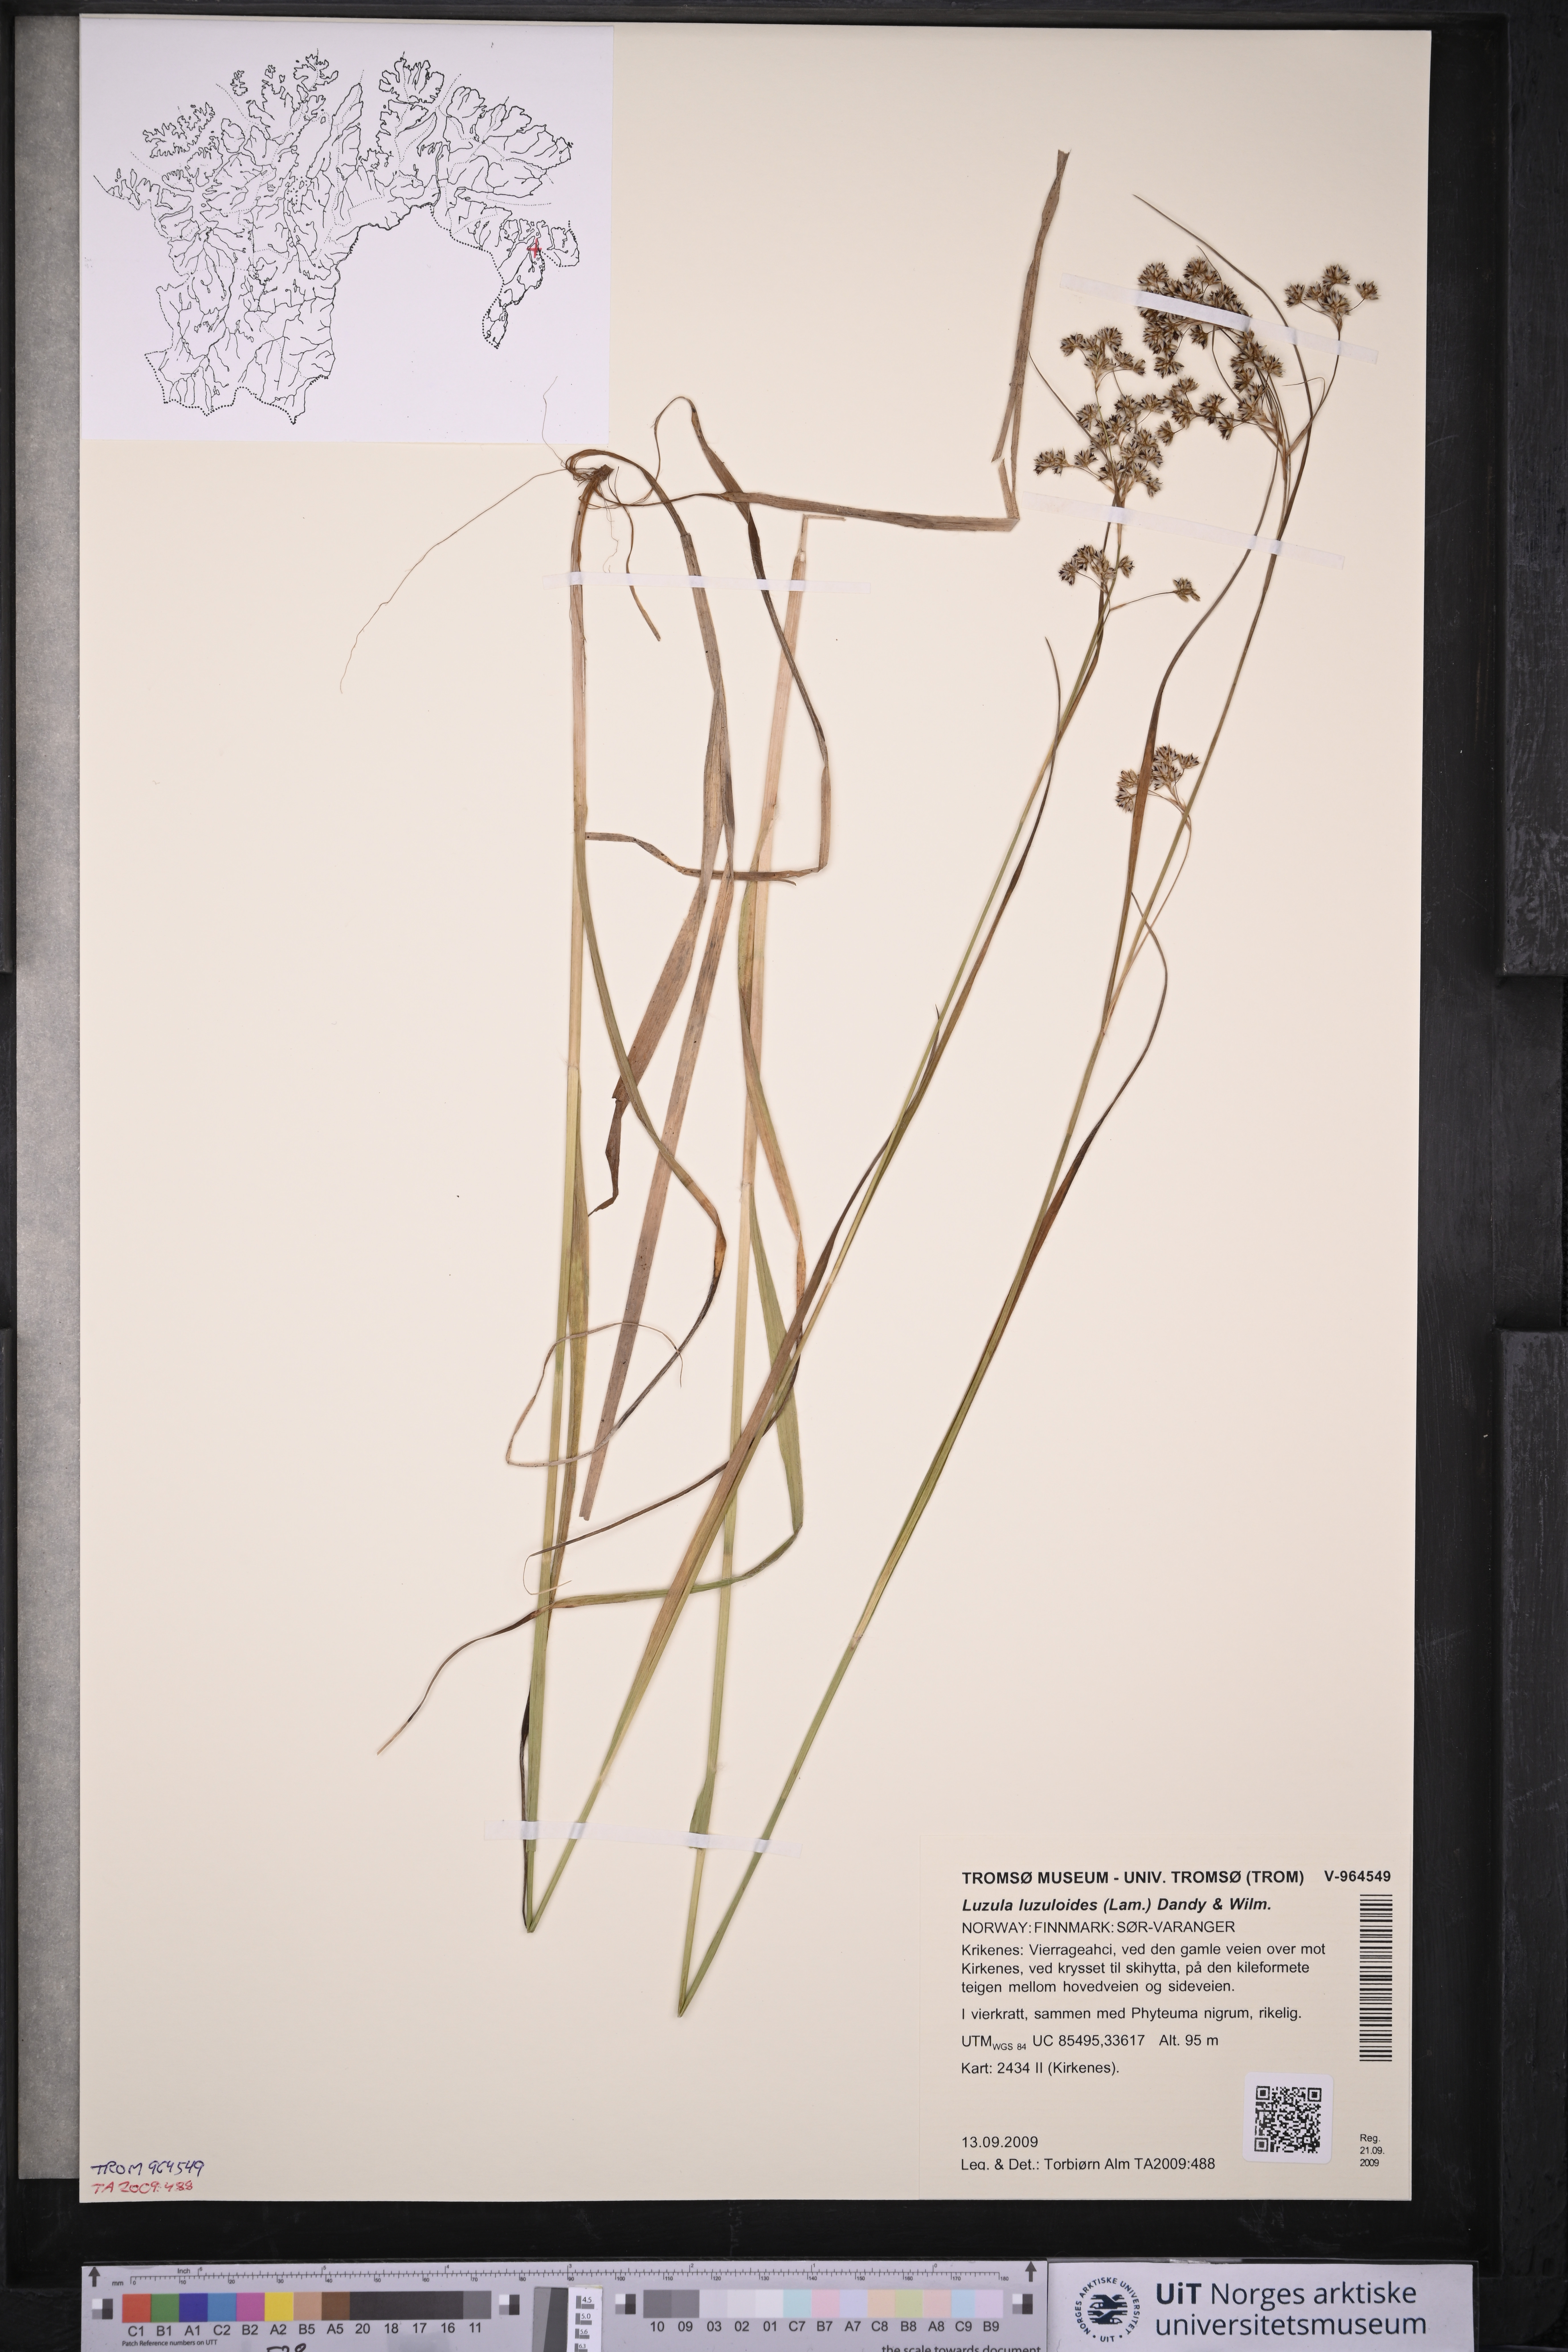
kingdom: Plantae
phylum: Tracheophyta
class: Liliopsida
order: Poales
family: Juncaceae
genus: Luzula
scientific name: Luzula luzuloides
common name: White wood-rush
